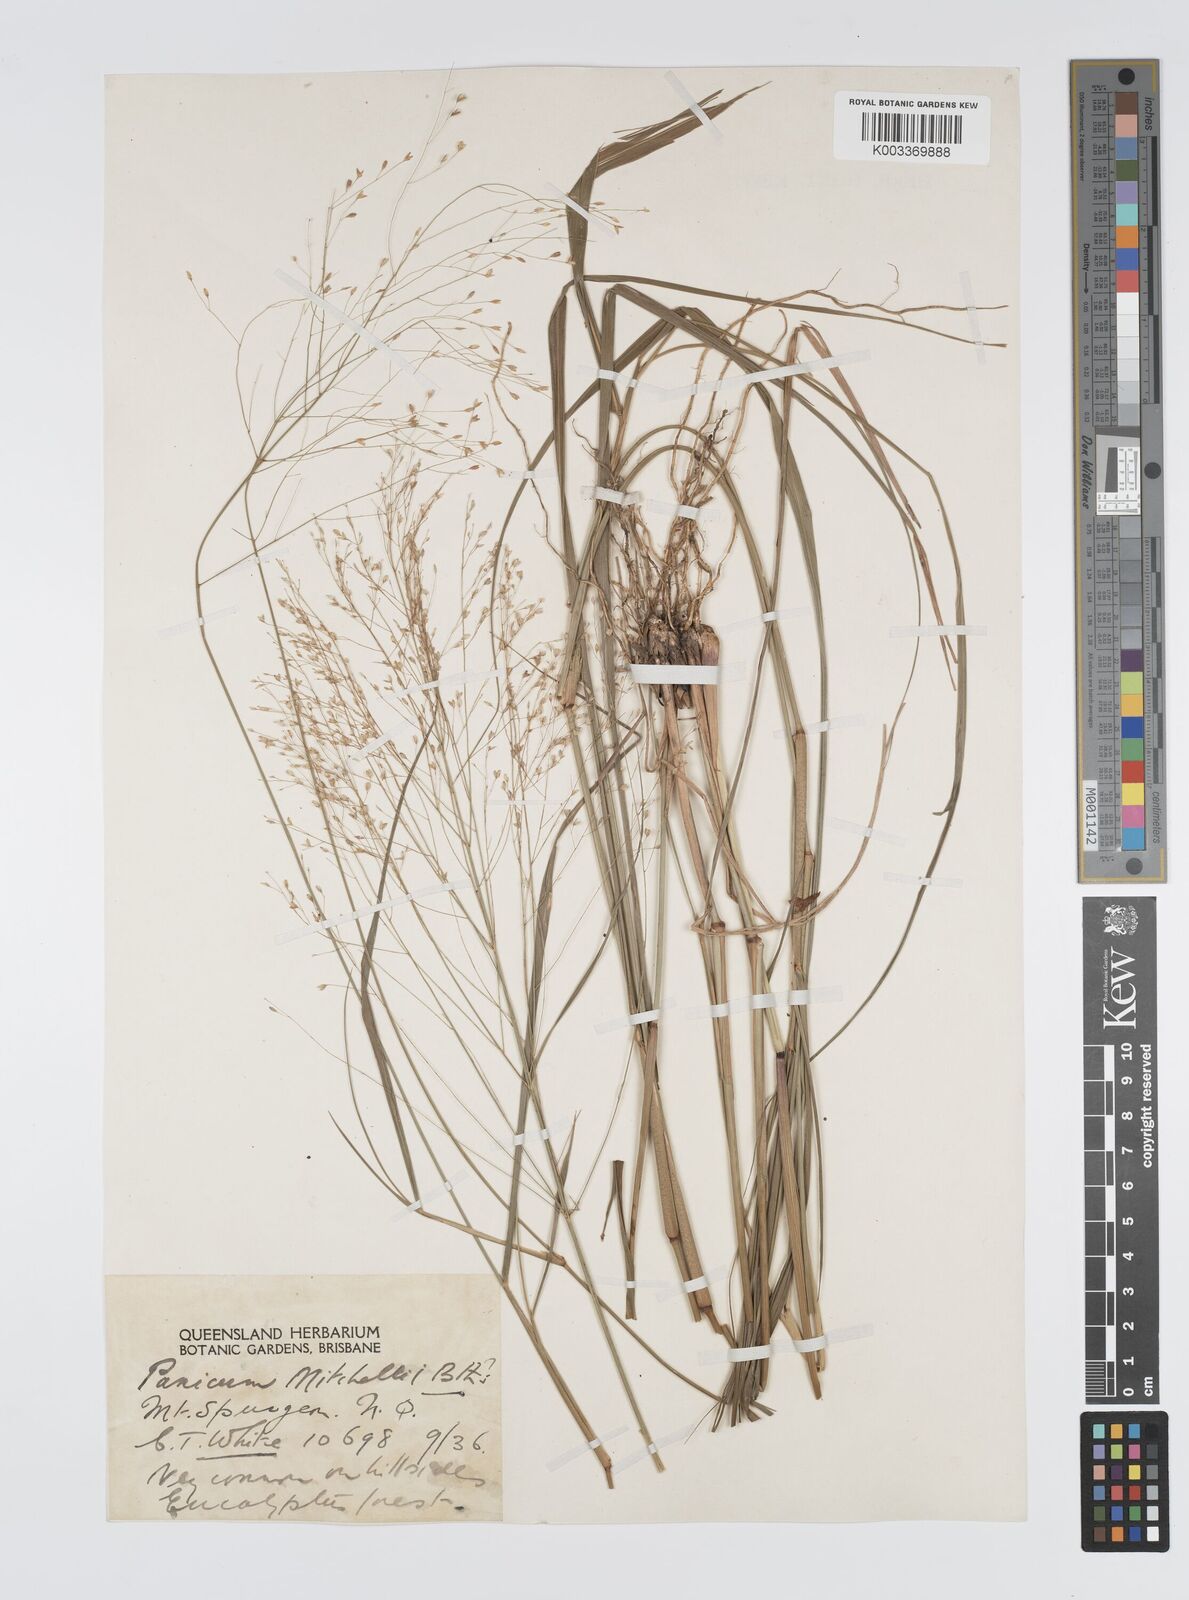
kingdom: Plantae
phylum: Tracheophyta
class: Liliopsida
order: Poales
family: Poaceae
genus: Panicum
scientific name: Panicum mitchellii
